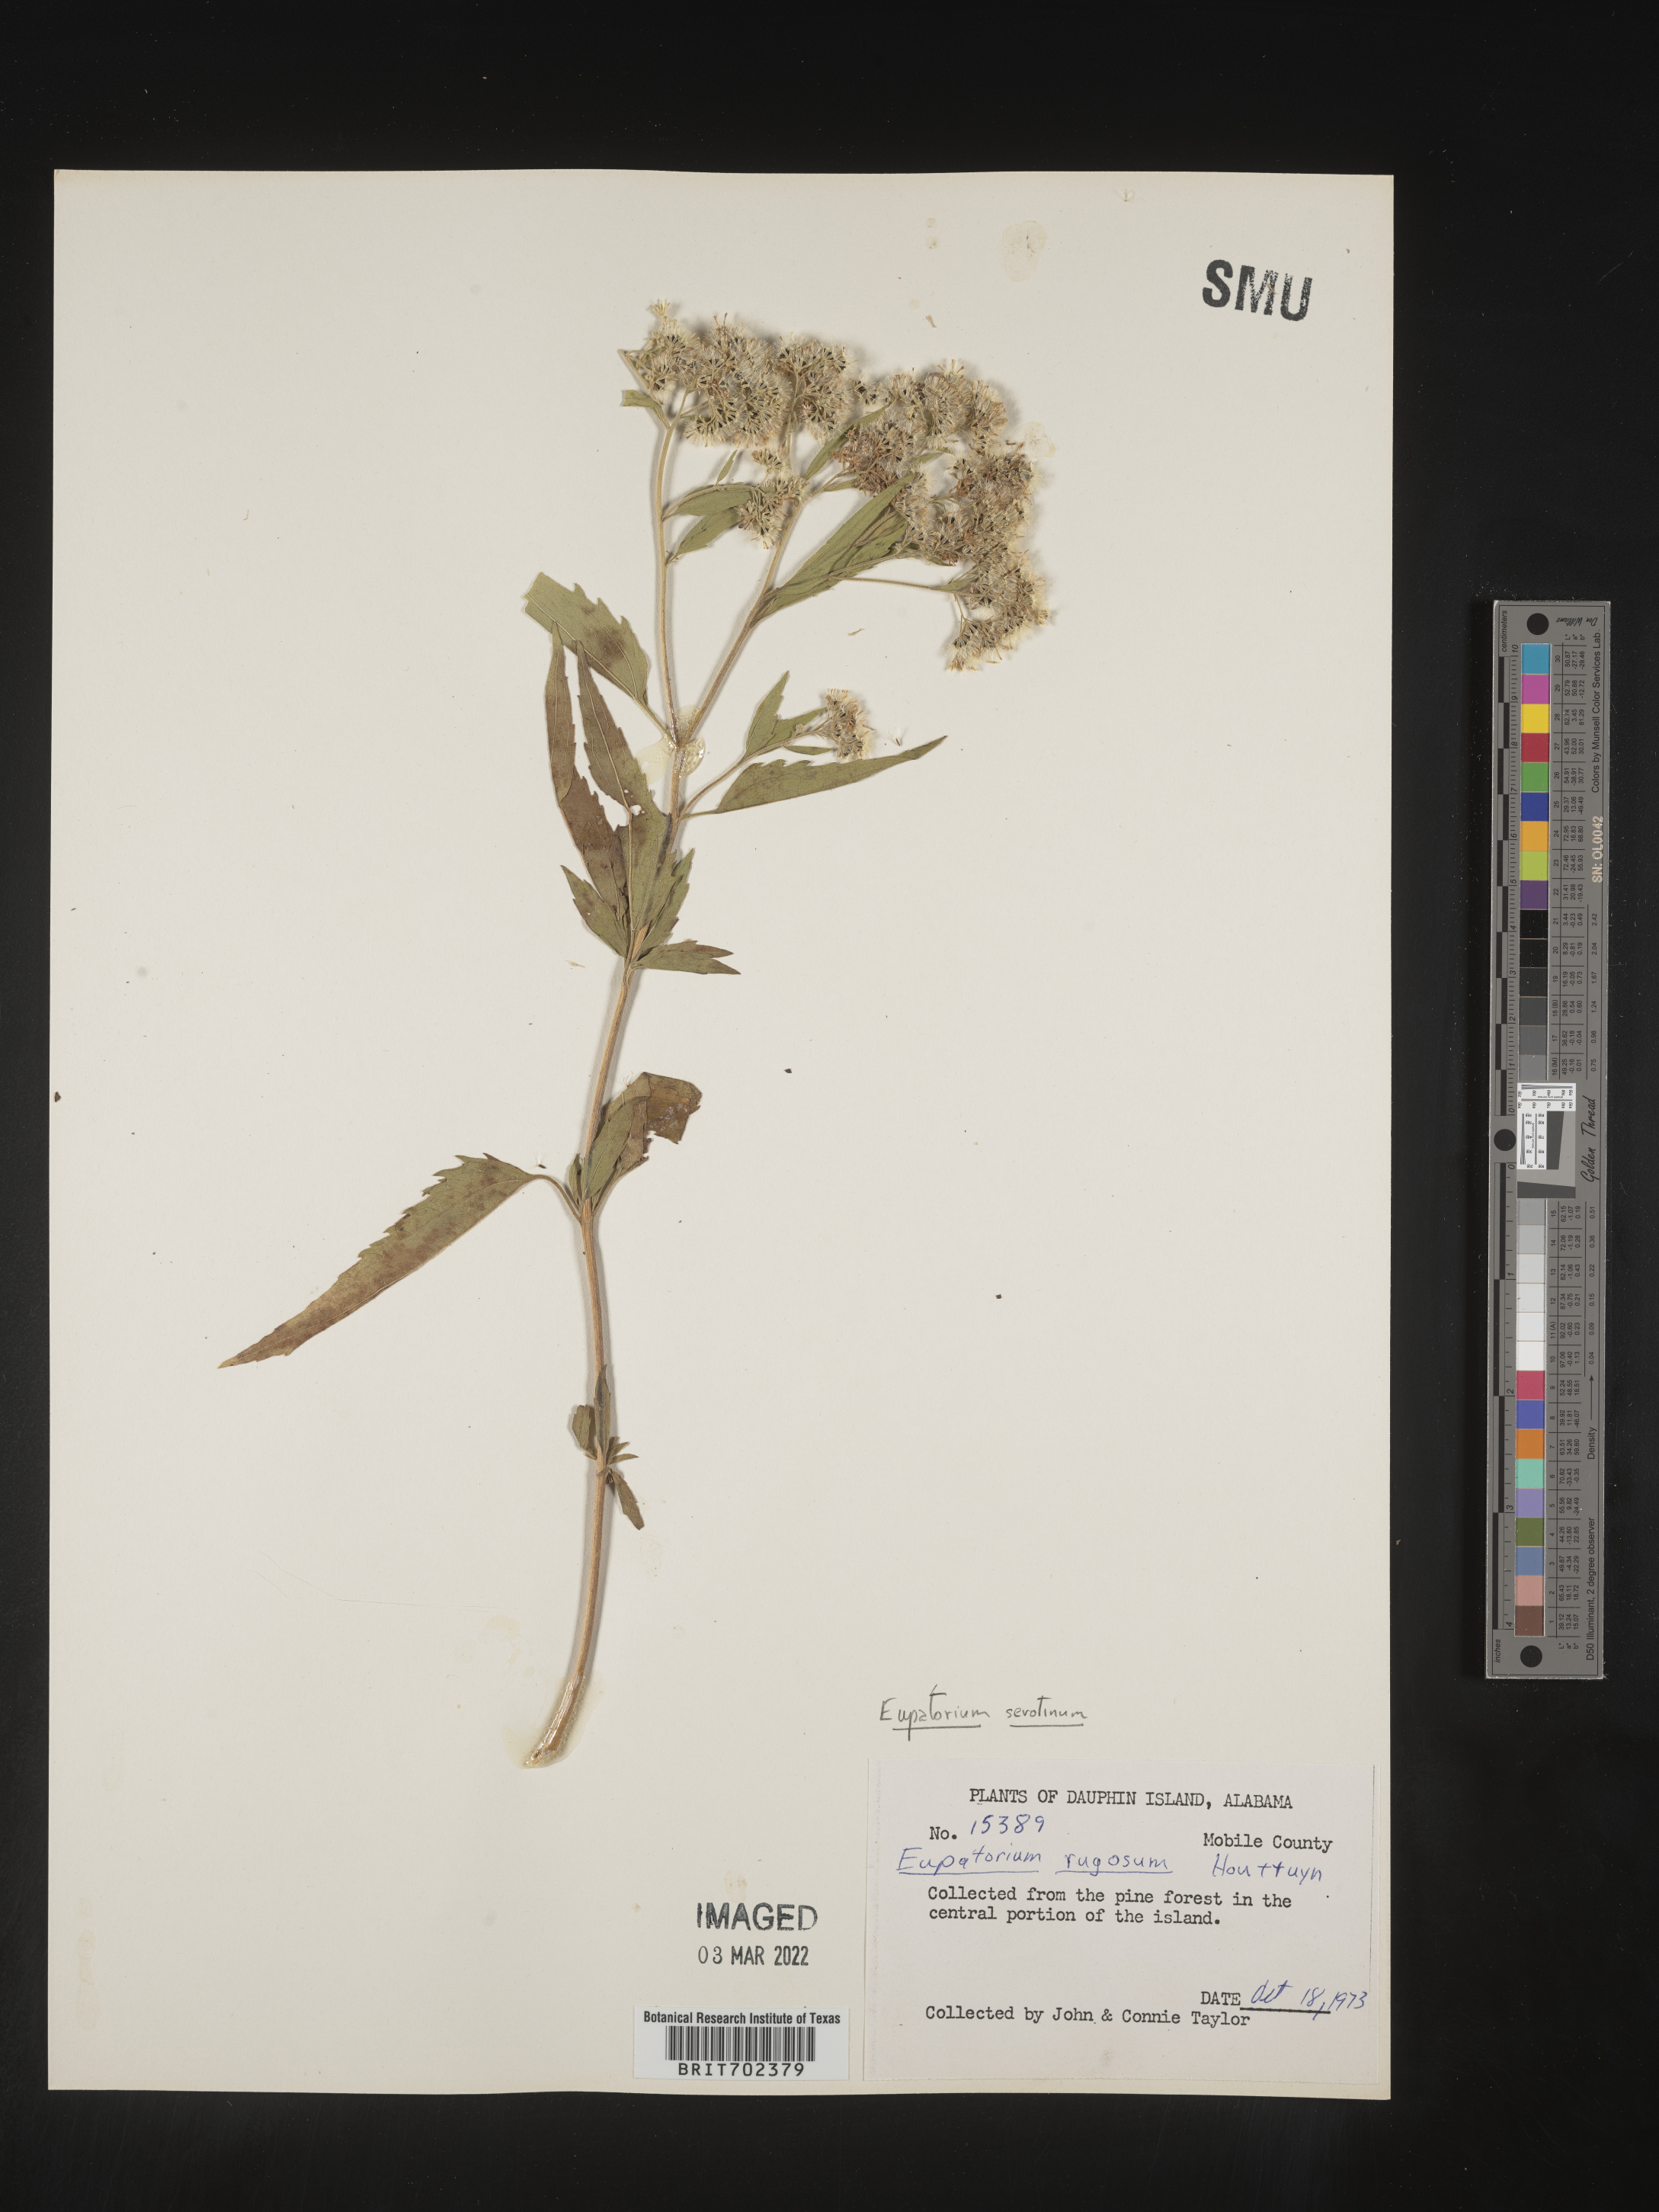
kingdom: Plantae
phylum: Tracheophyta
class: Magnoliopsida
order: Asterales
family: Asteraceae
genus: Eupatorium
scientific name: Eupatorium serotinum
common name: Late boneset
